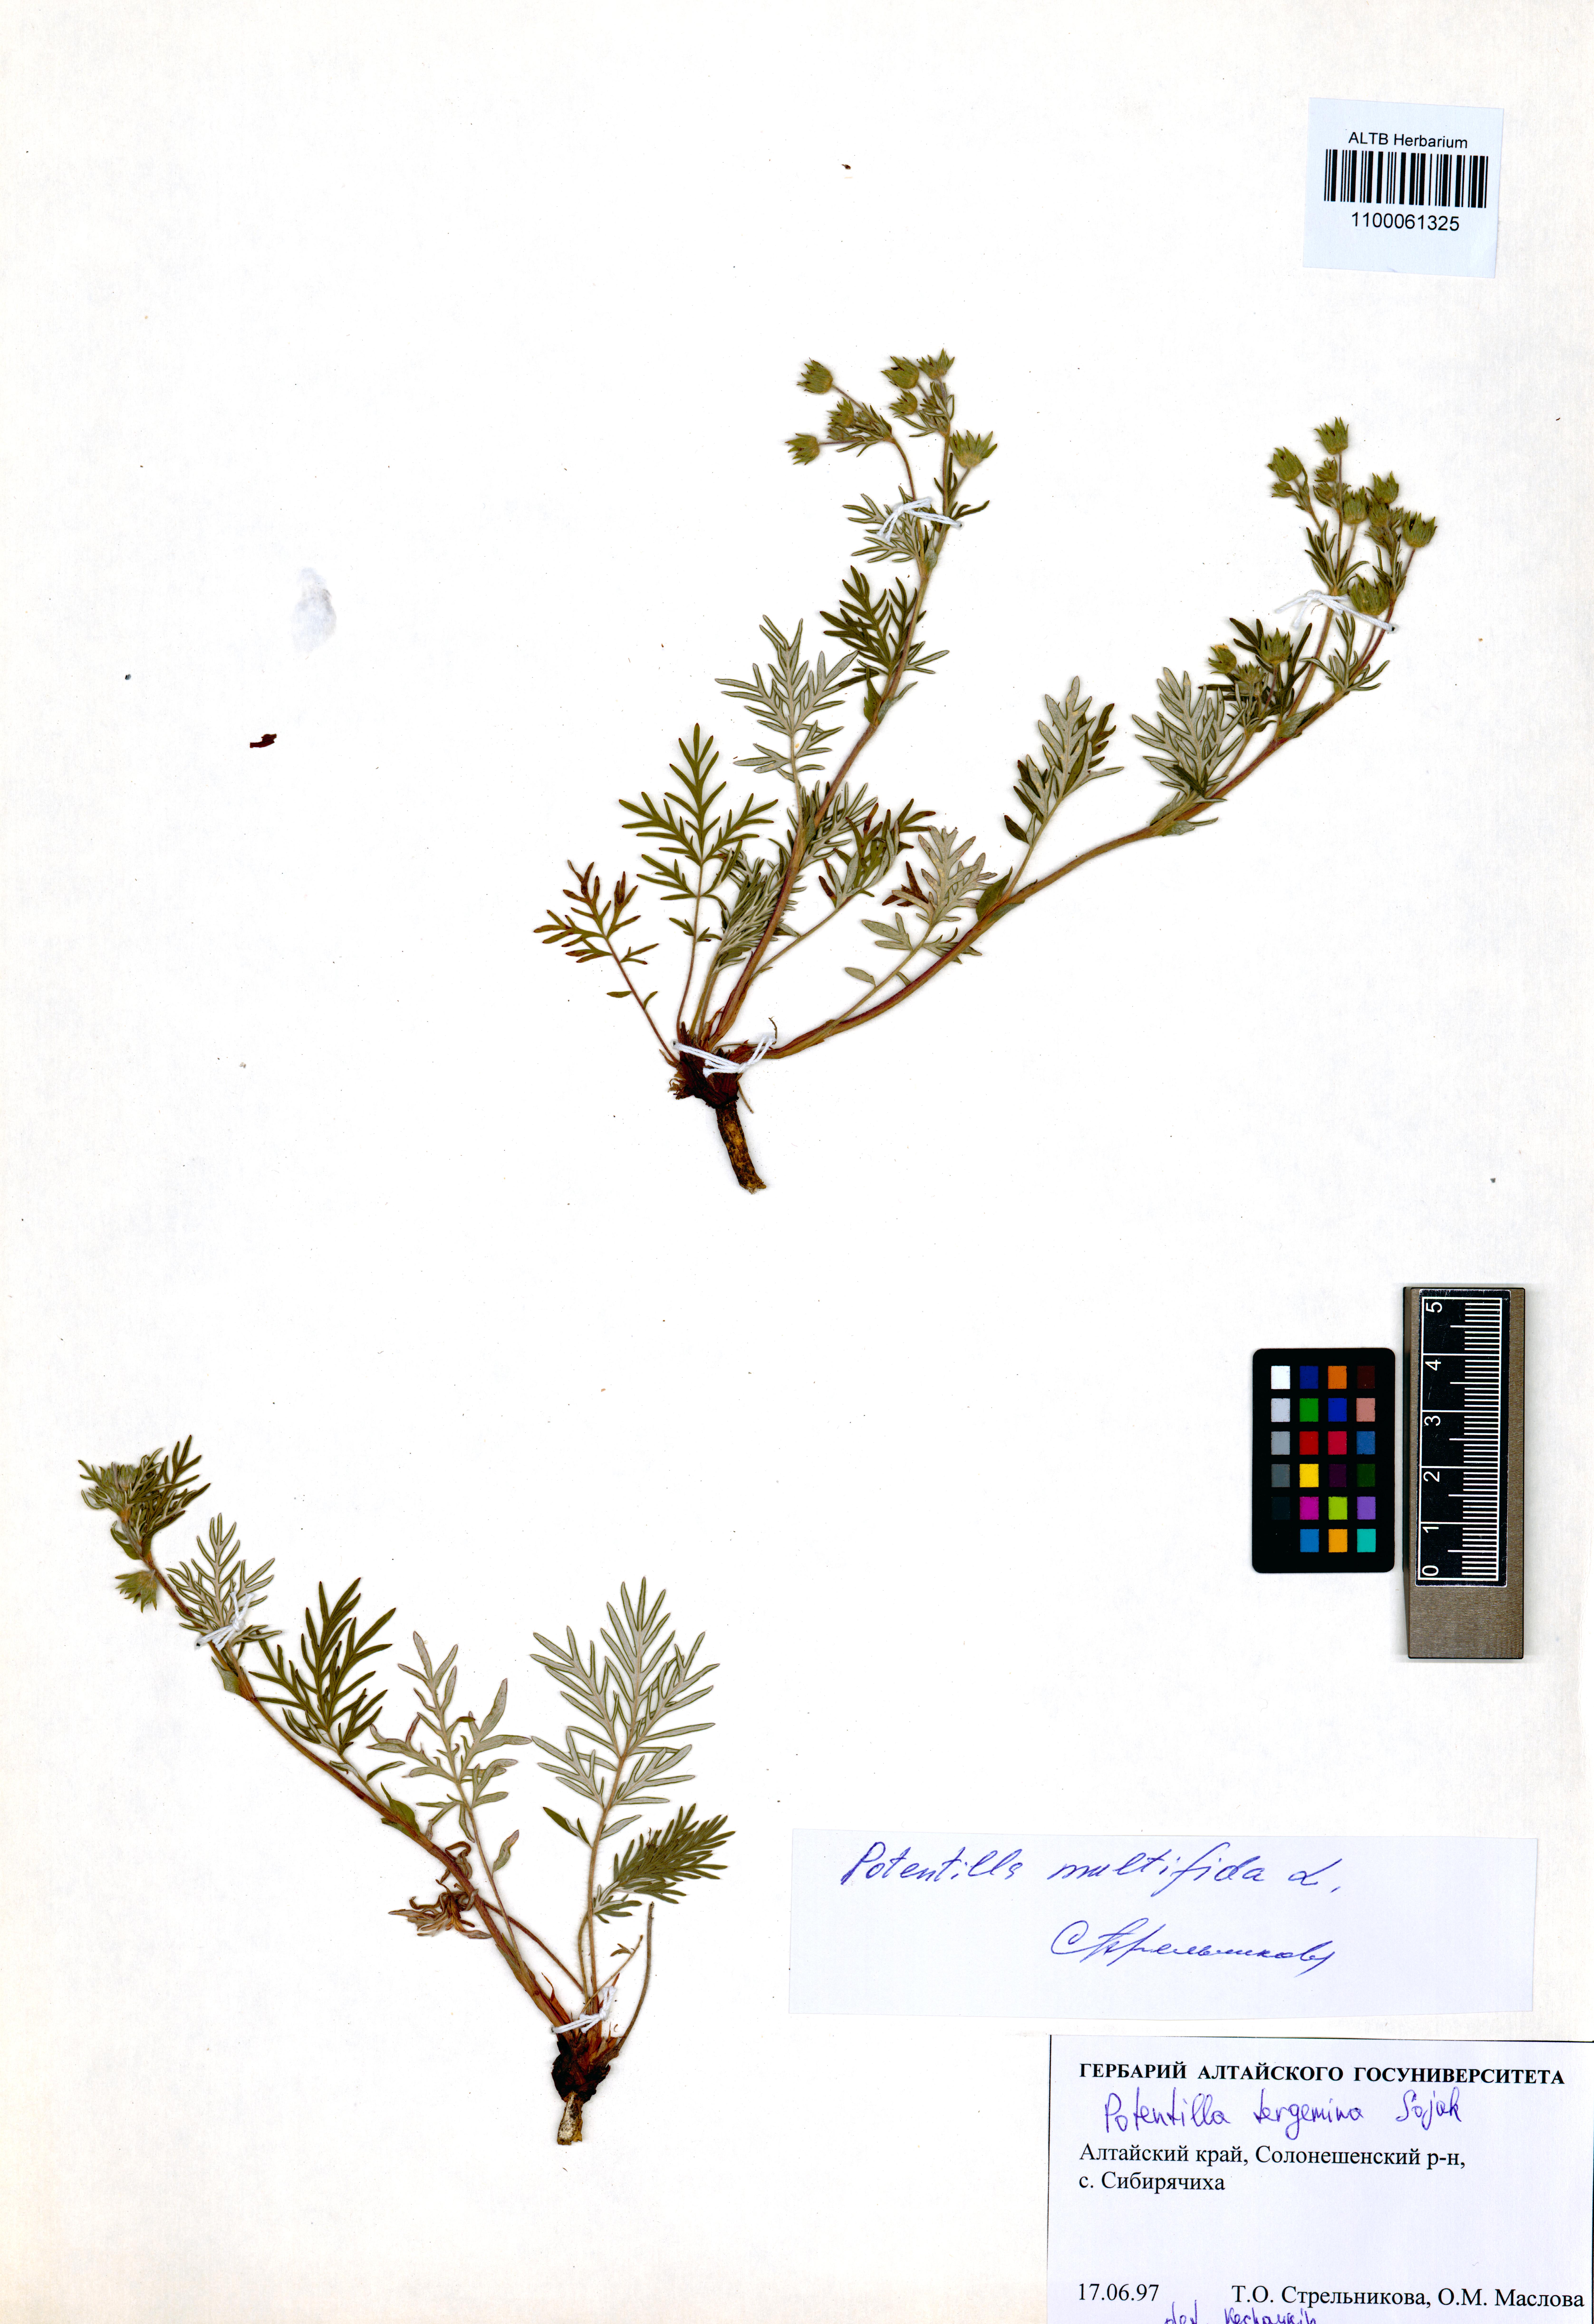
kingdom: Plantae
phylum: Tracheophyta
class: Magnoliopsida
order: Rosales
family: Rosaceae
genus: Potentilla
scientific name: Potentilla tergemina
